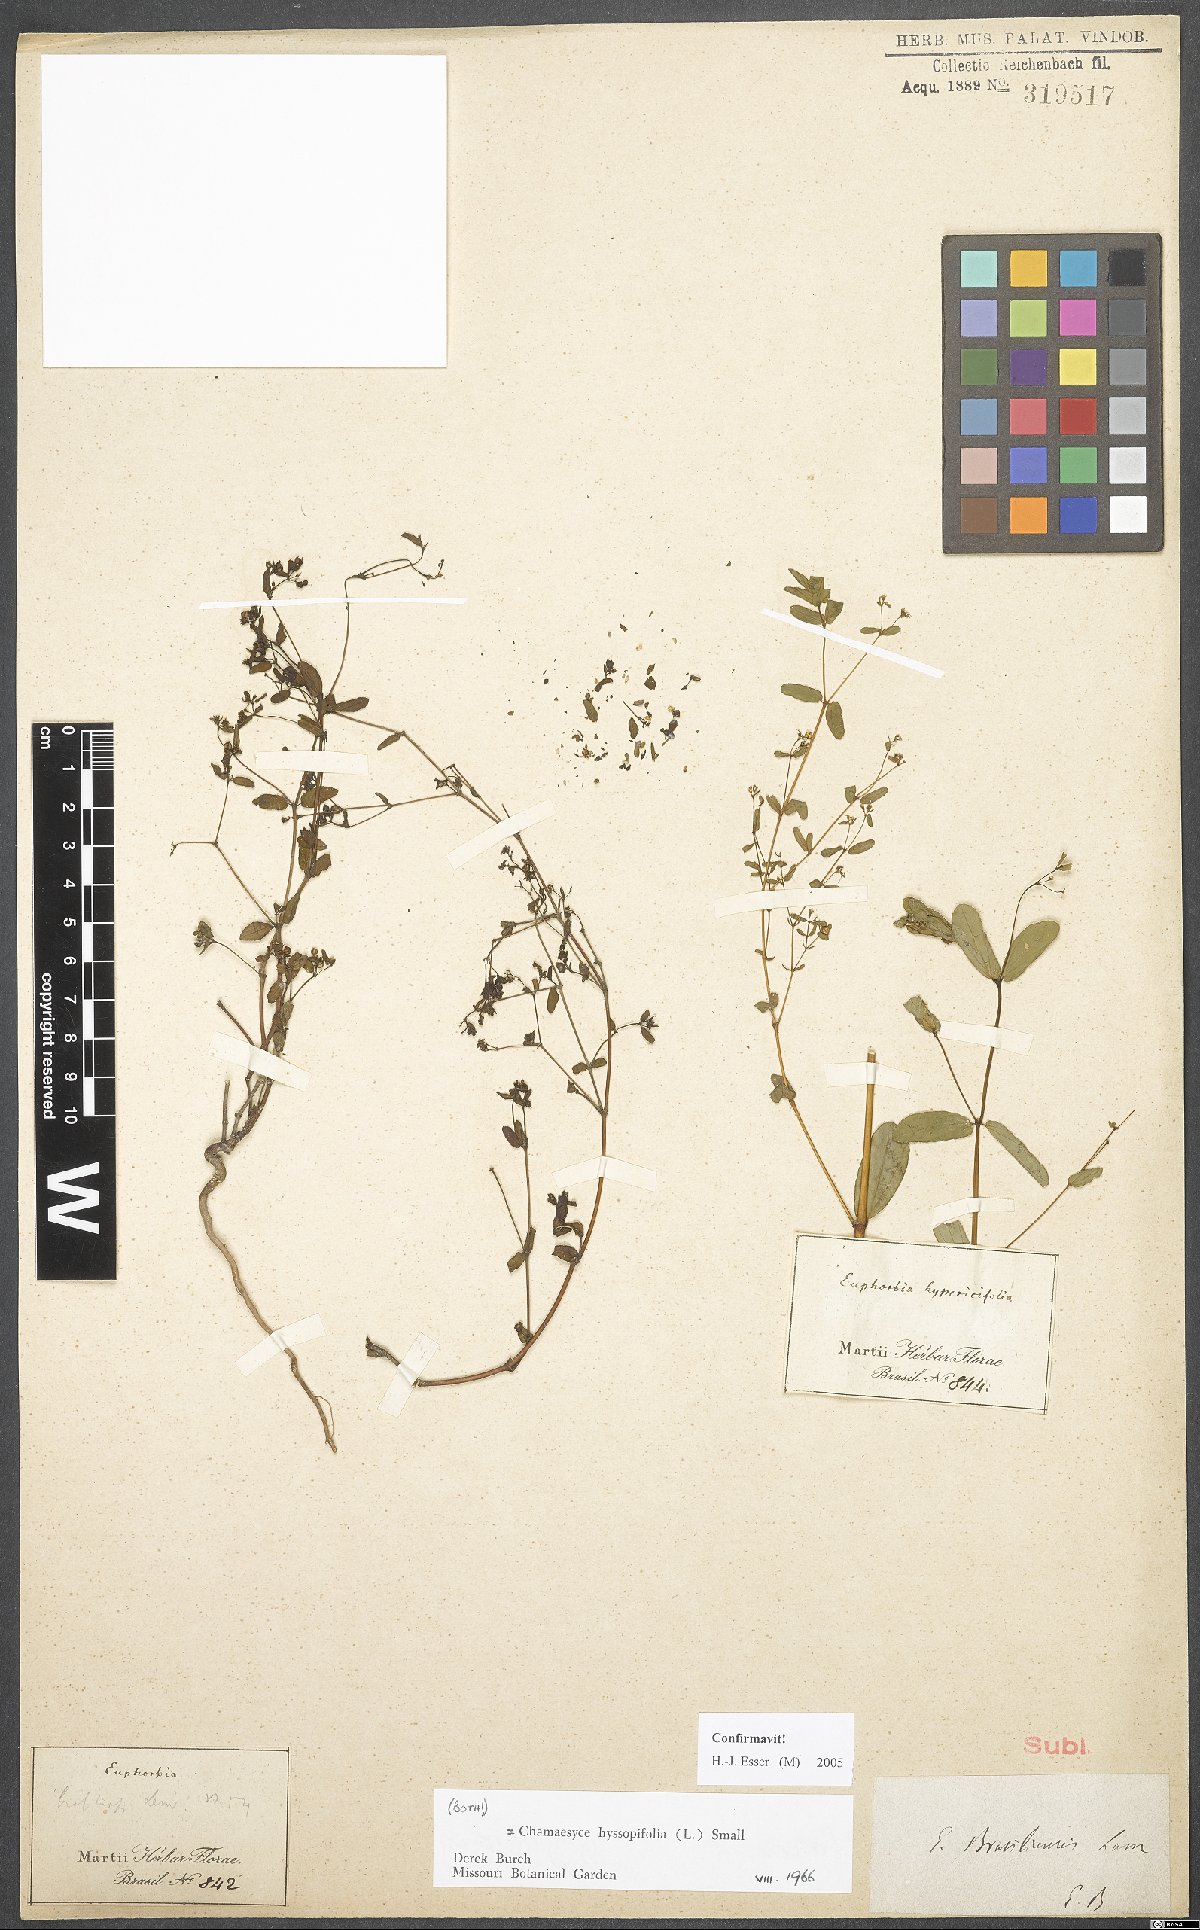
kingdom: Plantae
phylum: Tracheophyta
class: Magnoliopsida
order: Malpighiales
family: Euphorbiaceae
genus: Euphorbia
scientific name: Euphorbia hyssopifolia
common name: Hyssopleaf sandmat
